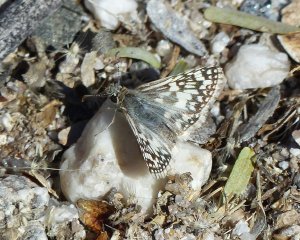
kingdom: Animalia
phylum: Arthropoda
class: Insecta
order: Lepidoptera
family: Hesperiidae
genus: Pyrgus
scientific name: Pyrgus oileus
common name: Desert Checkered-Skipper
